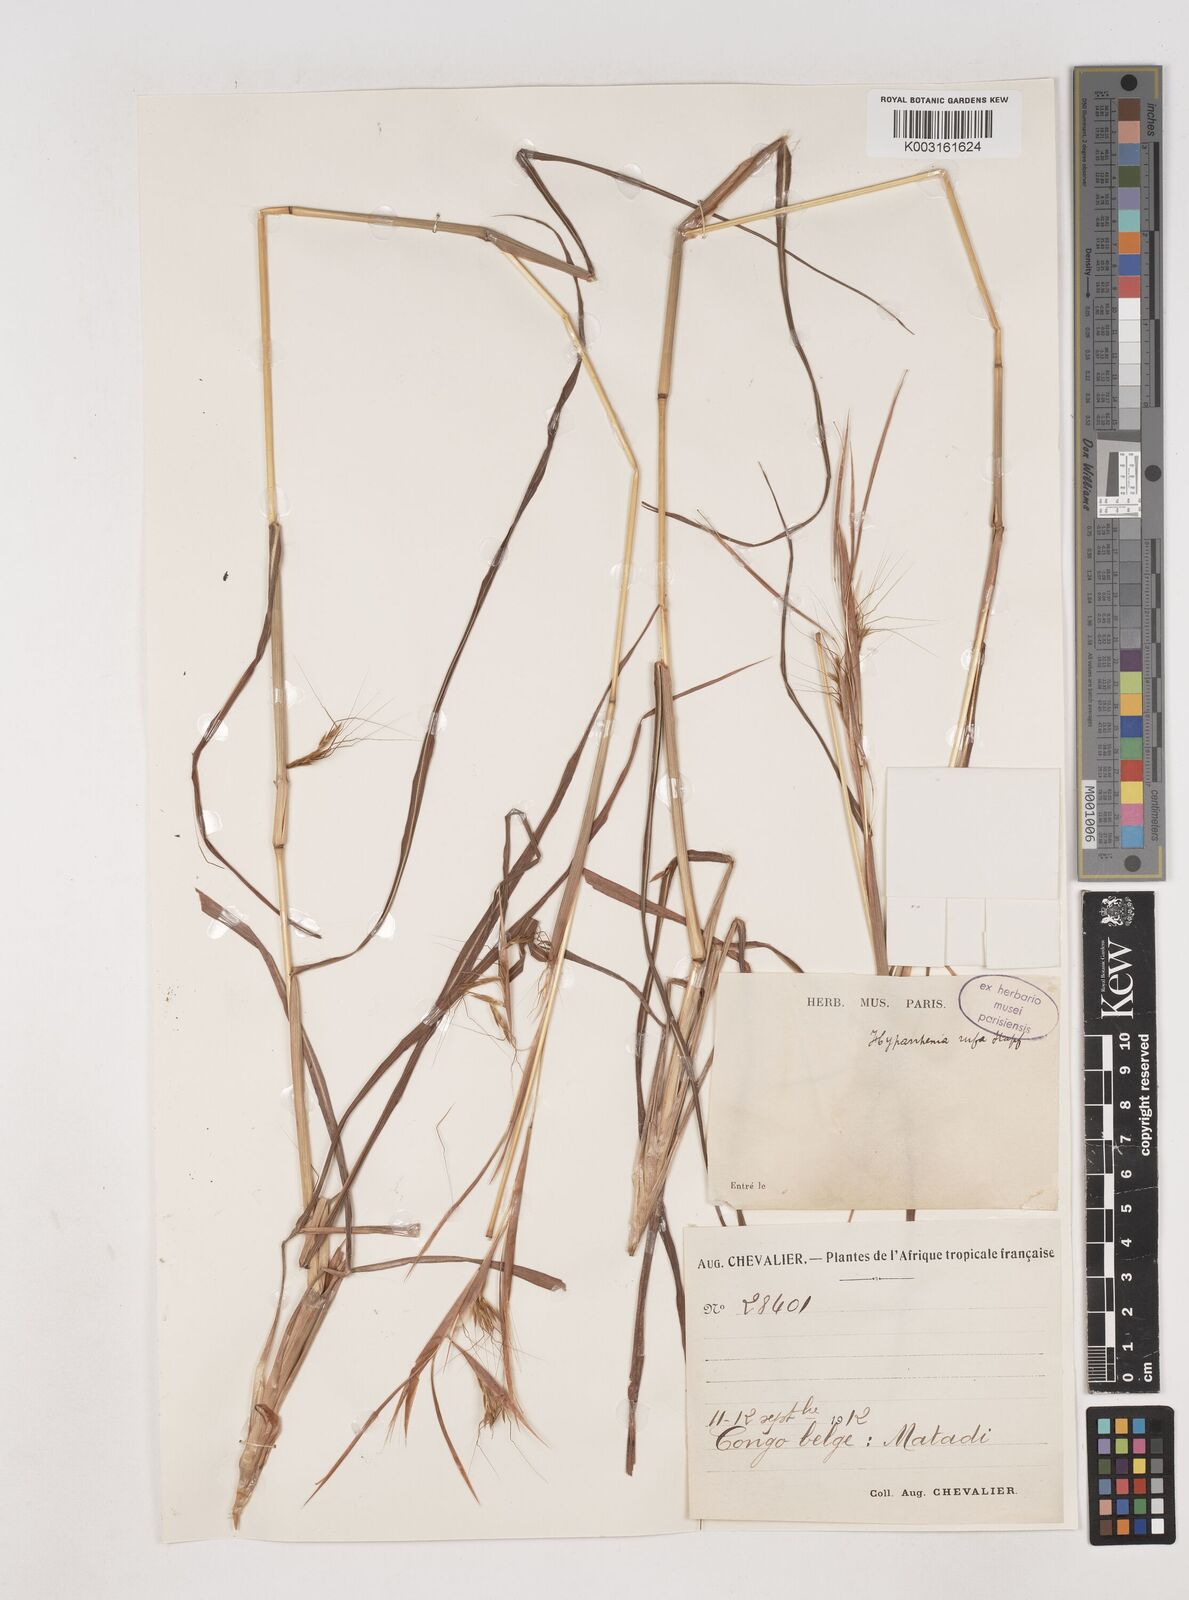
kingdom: Plantae
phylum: Tracheophyta
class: Liliopsida
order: Poales
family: Poaceae
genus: Hyparrhenia
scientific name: Hyparrhenia rufa
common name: Jaraguagrass
